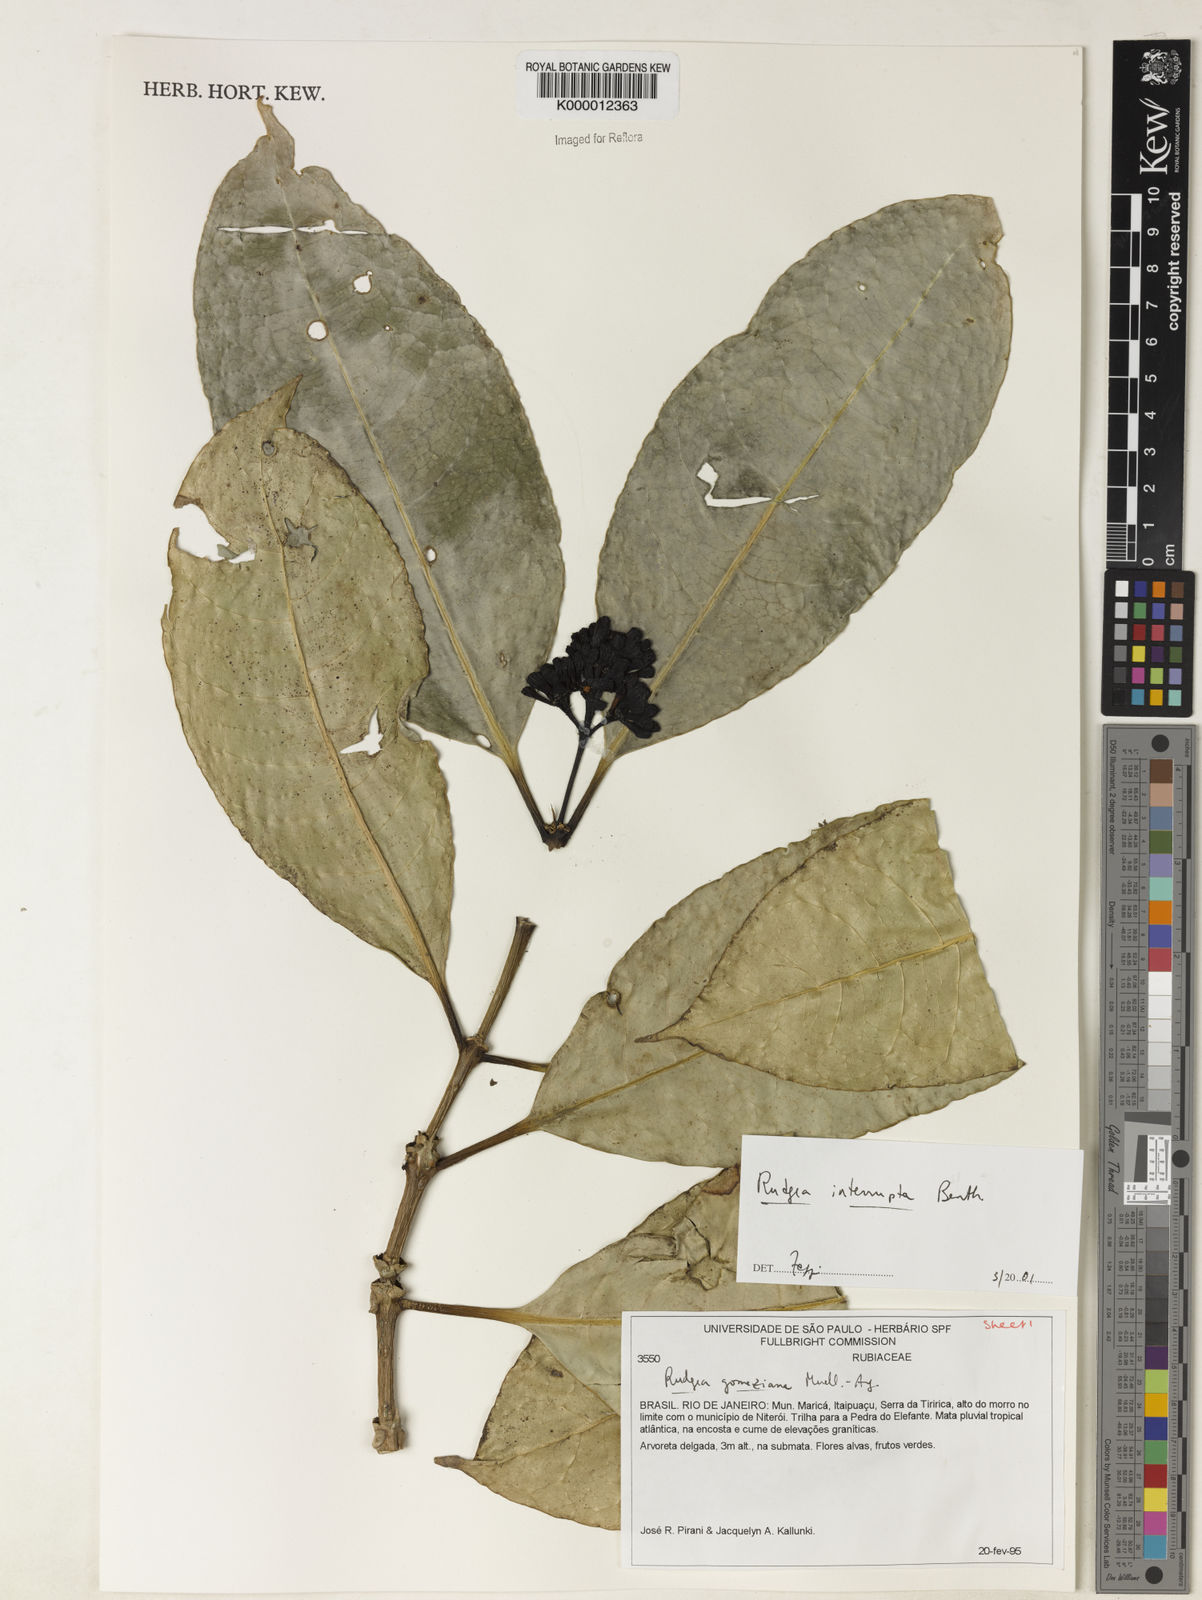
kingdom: Plantae
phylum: Tracheophyta
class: Magnoliopsida
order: Gentianales
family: Rubiaceae
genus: Rudgea
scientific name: Rudgea interrupta
